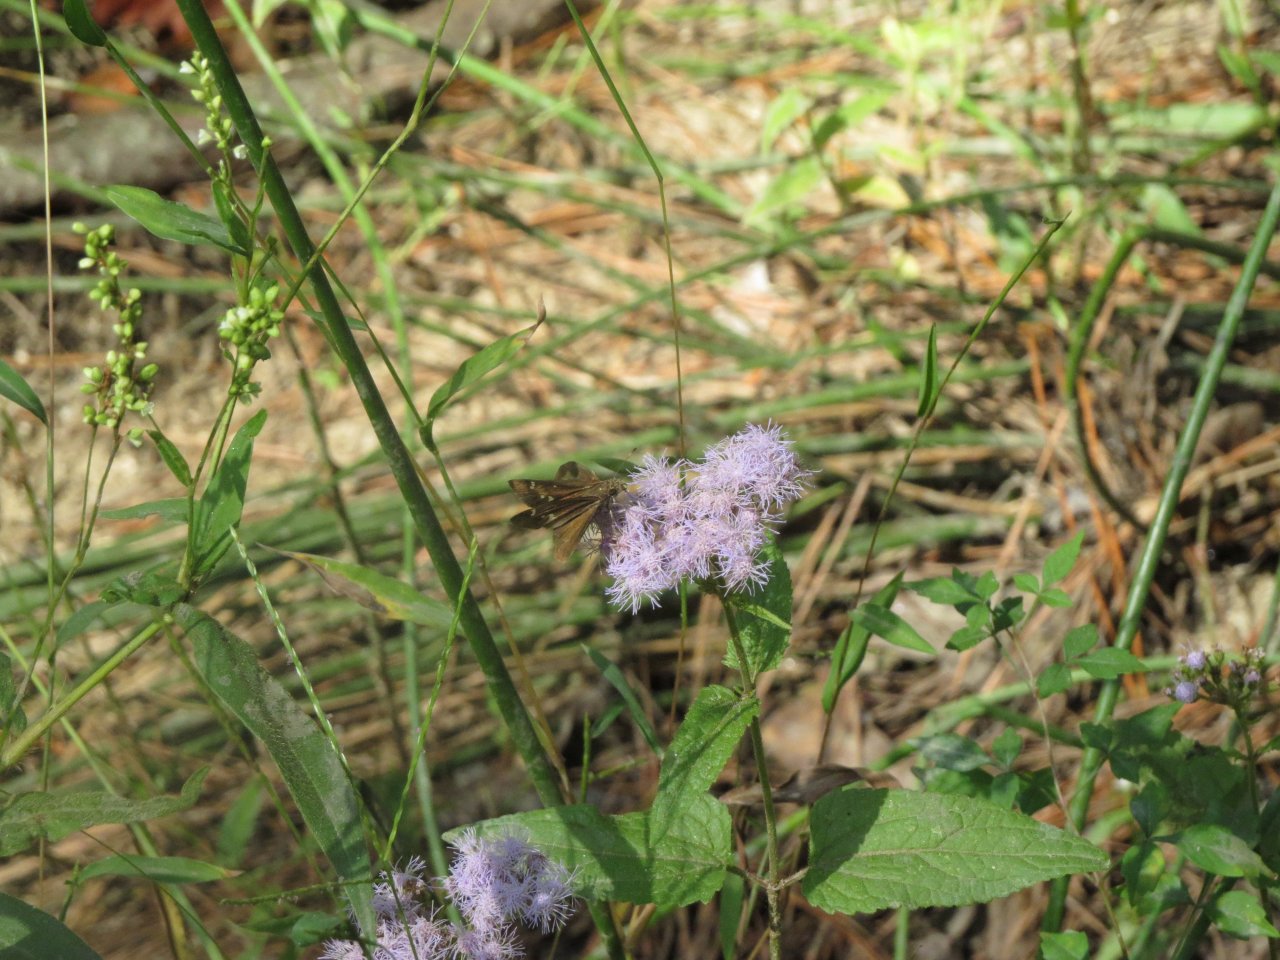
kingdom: Animalia
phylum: Arthropoda
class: Insecta
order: Lepidoptera
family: Hesperiidae
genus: Lerema
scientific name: Lerema accius
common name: Clouded Skipper
